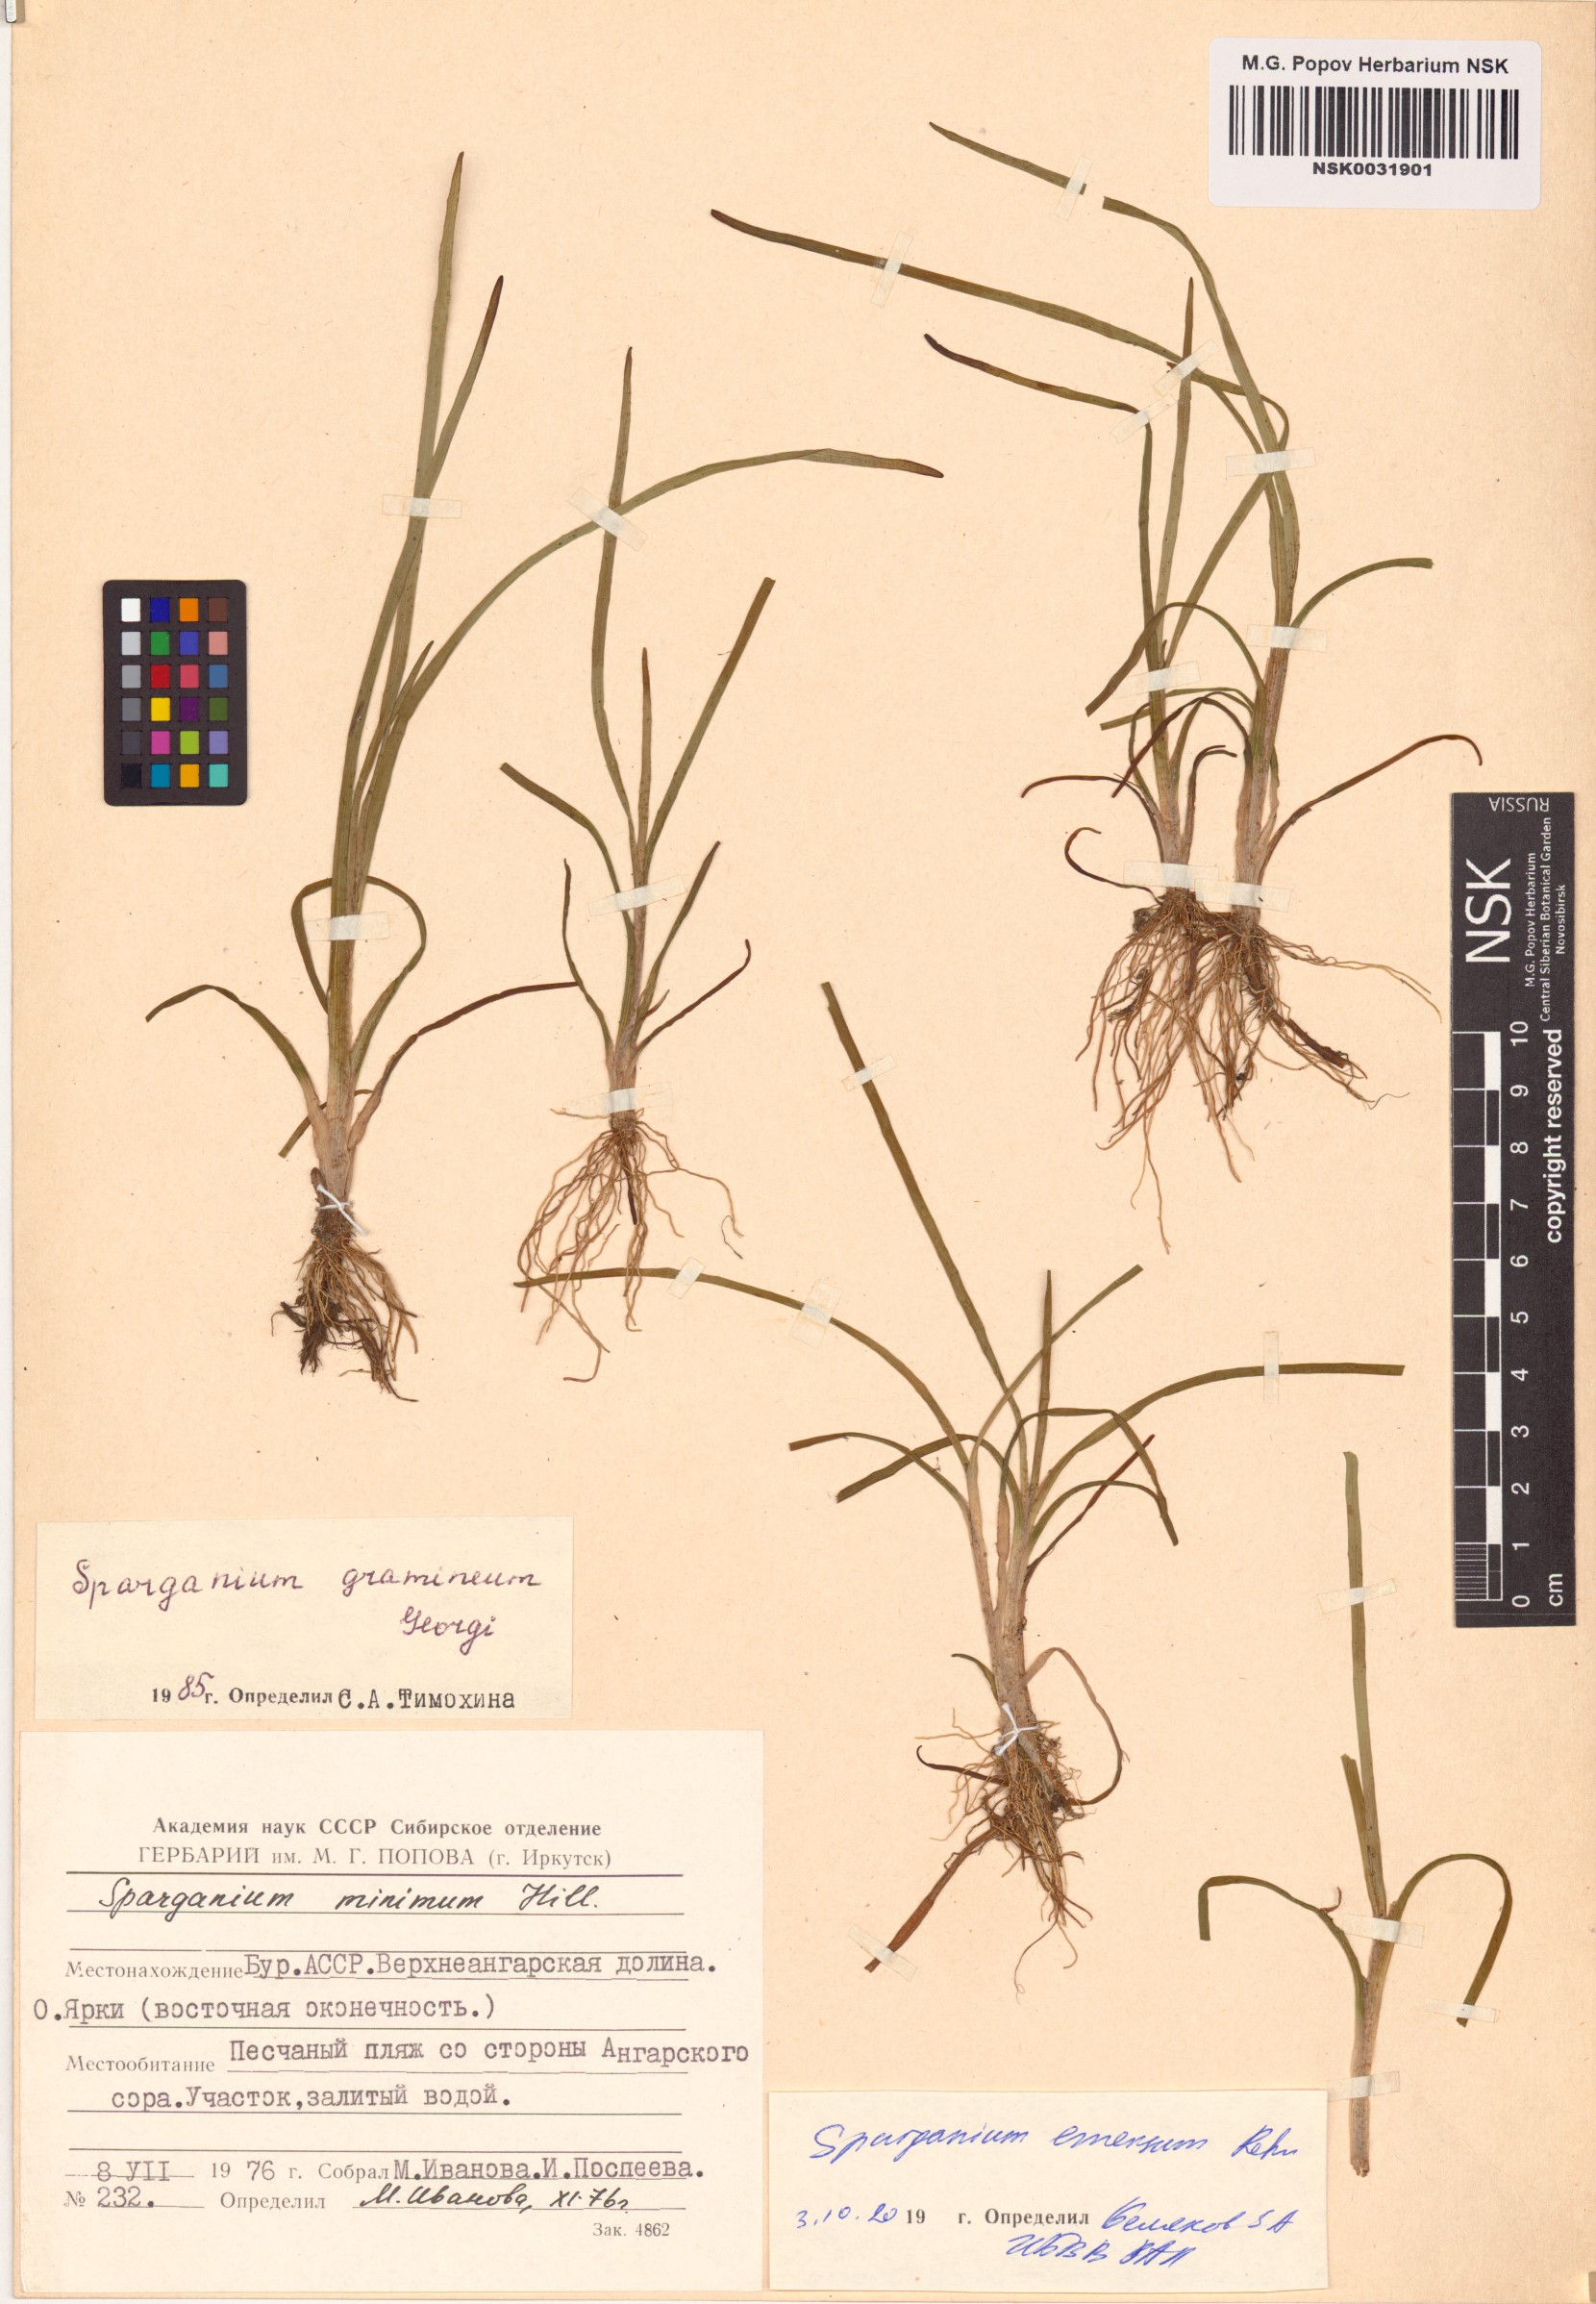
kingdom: Plantae
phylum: Tracheophyta
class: Liliopsida
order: Poales
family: Typhaceae
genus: Sparganium
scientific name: Sparganium emersum
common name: Unbranched bur-reed
